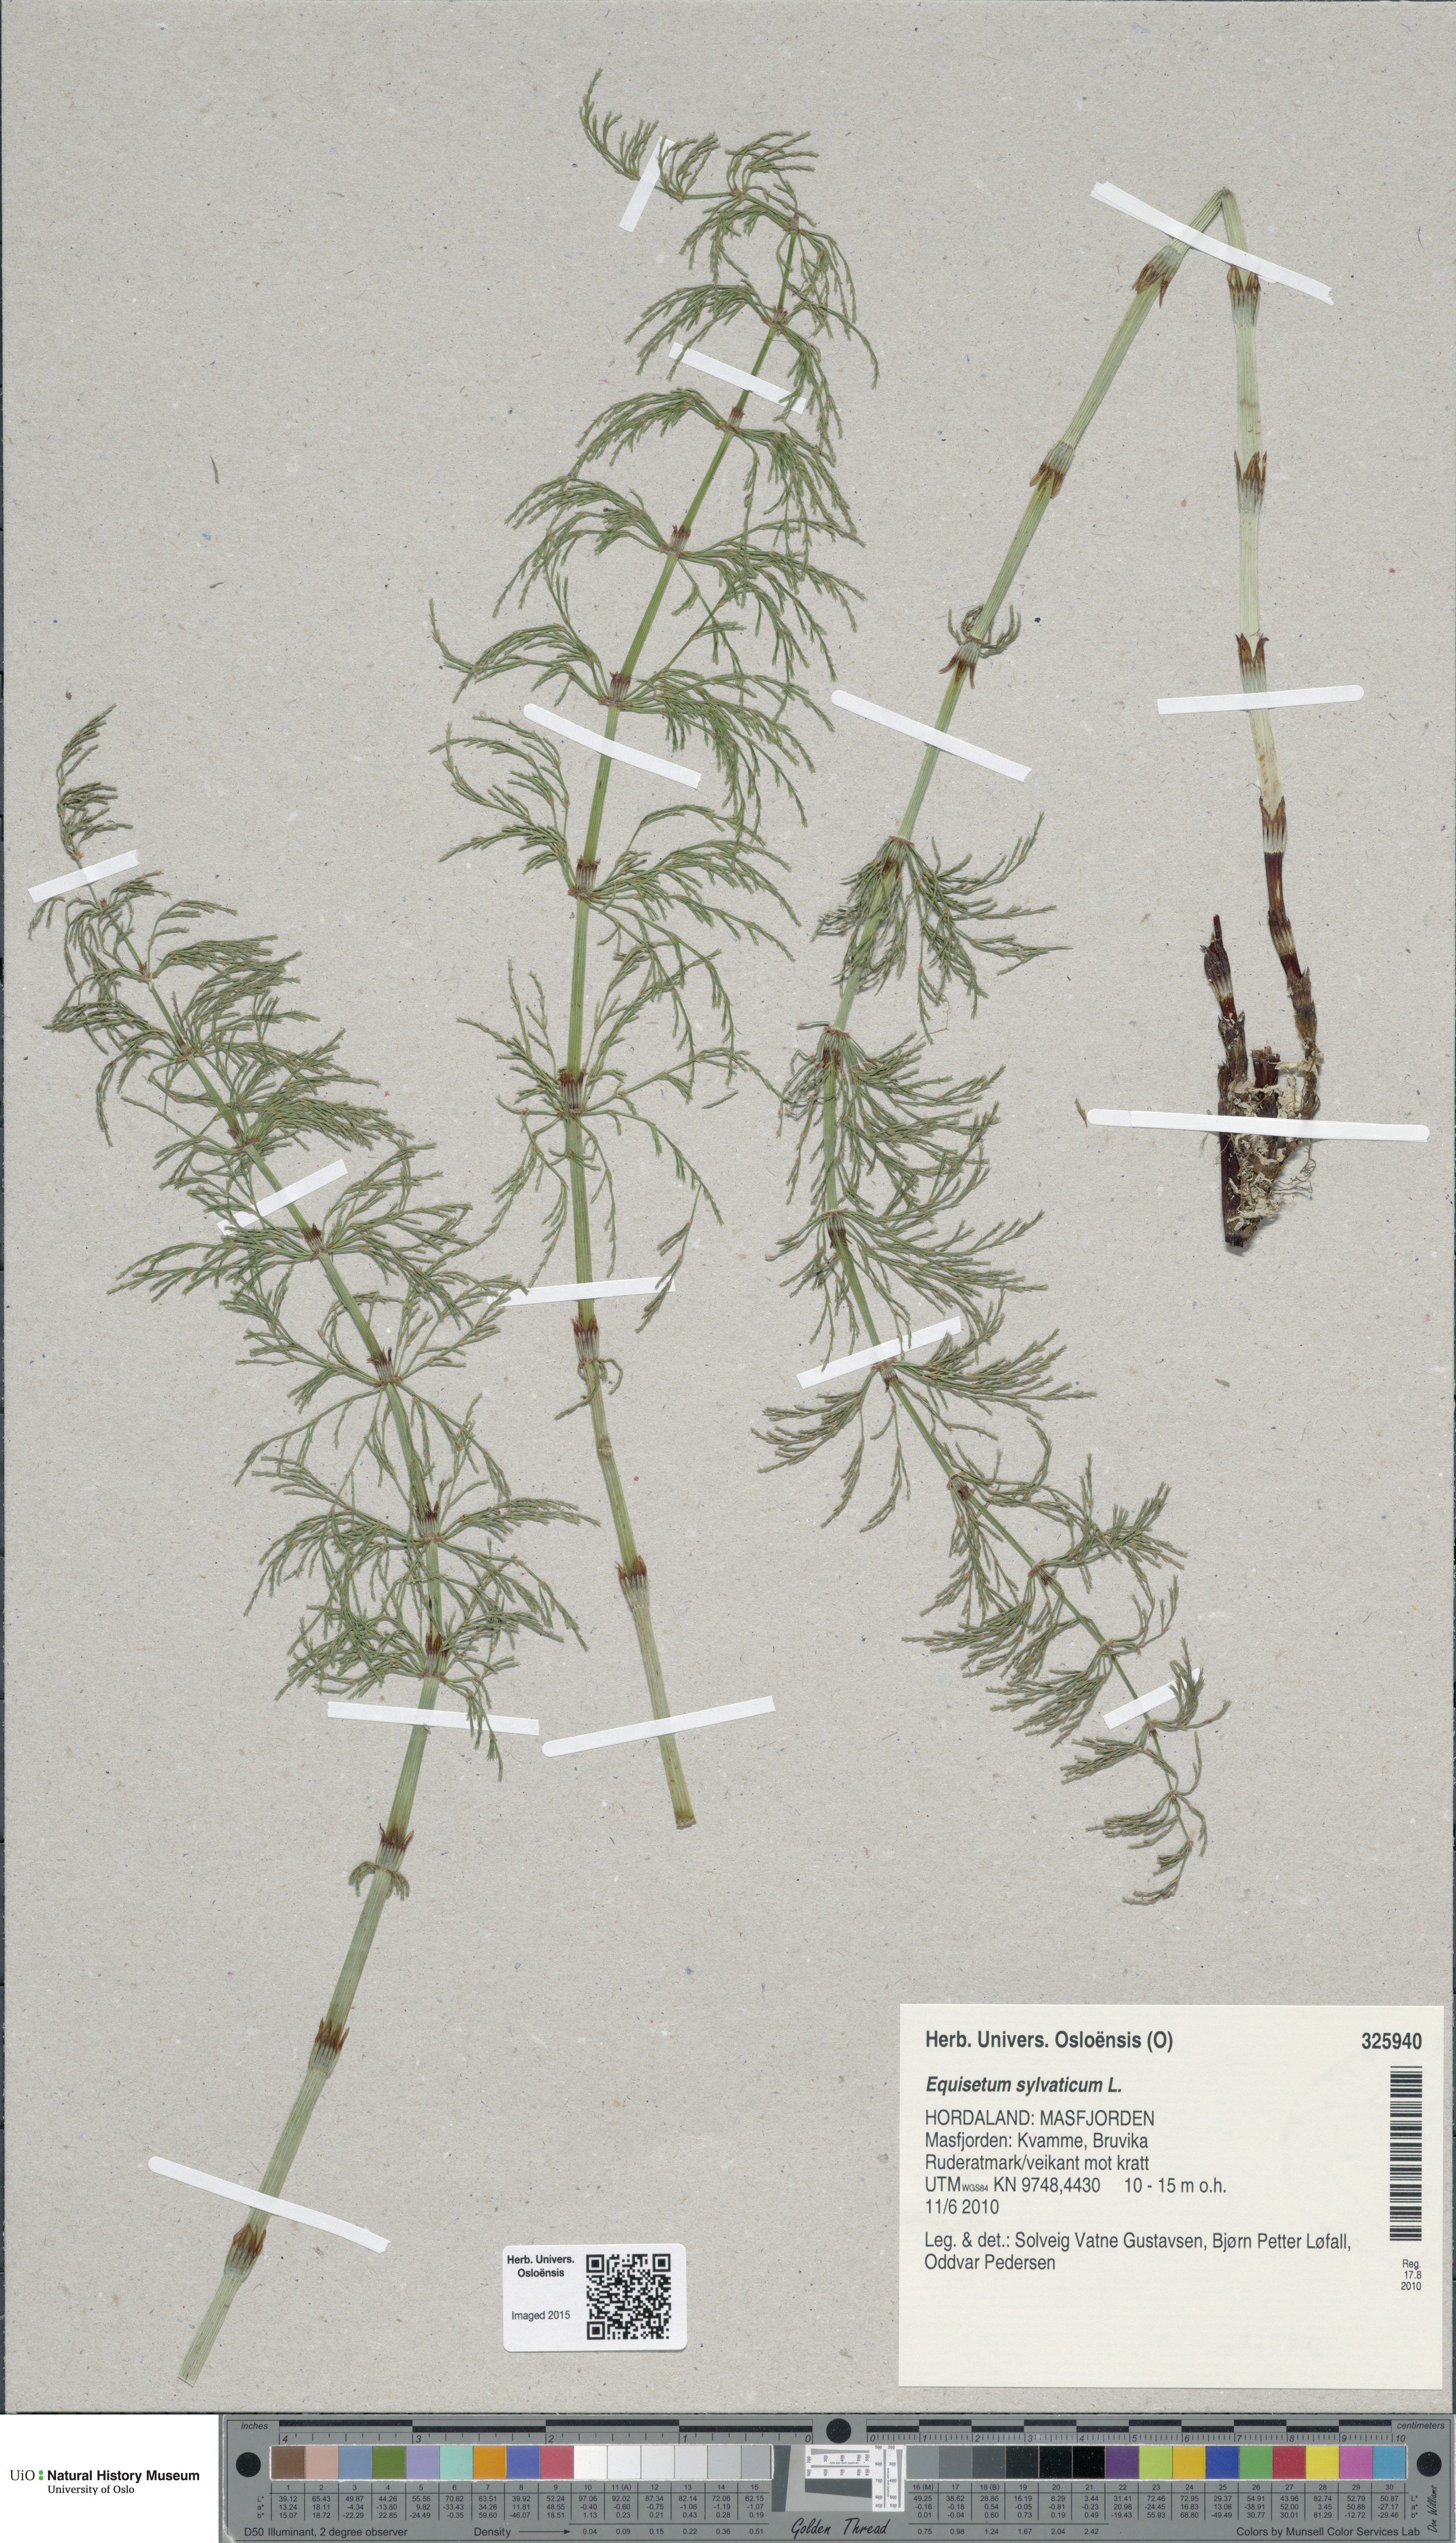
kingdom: Plantae
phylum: Tracheophyta
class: Polypodiopsida
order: Equisetales
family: Equisetaceae
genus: Equisetum
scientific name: Equisetum sylvaticum
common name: Wood horsetail
